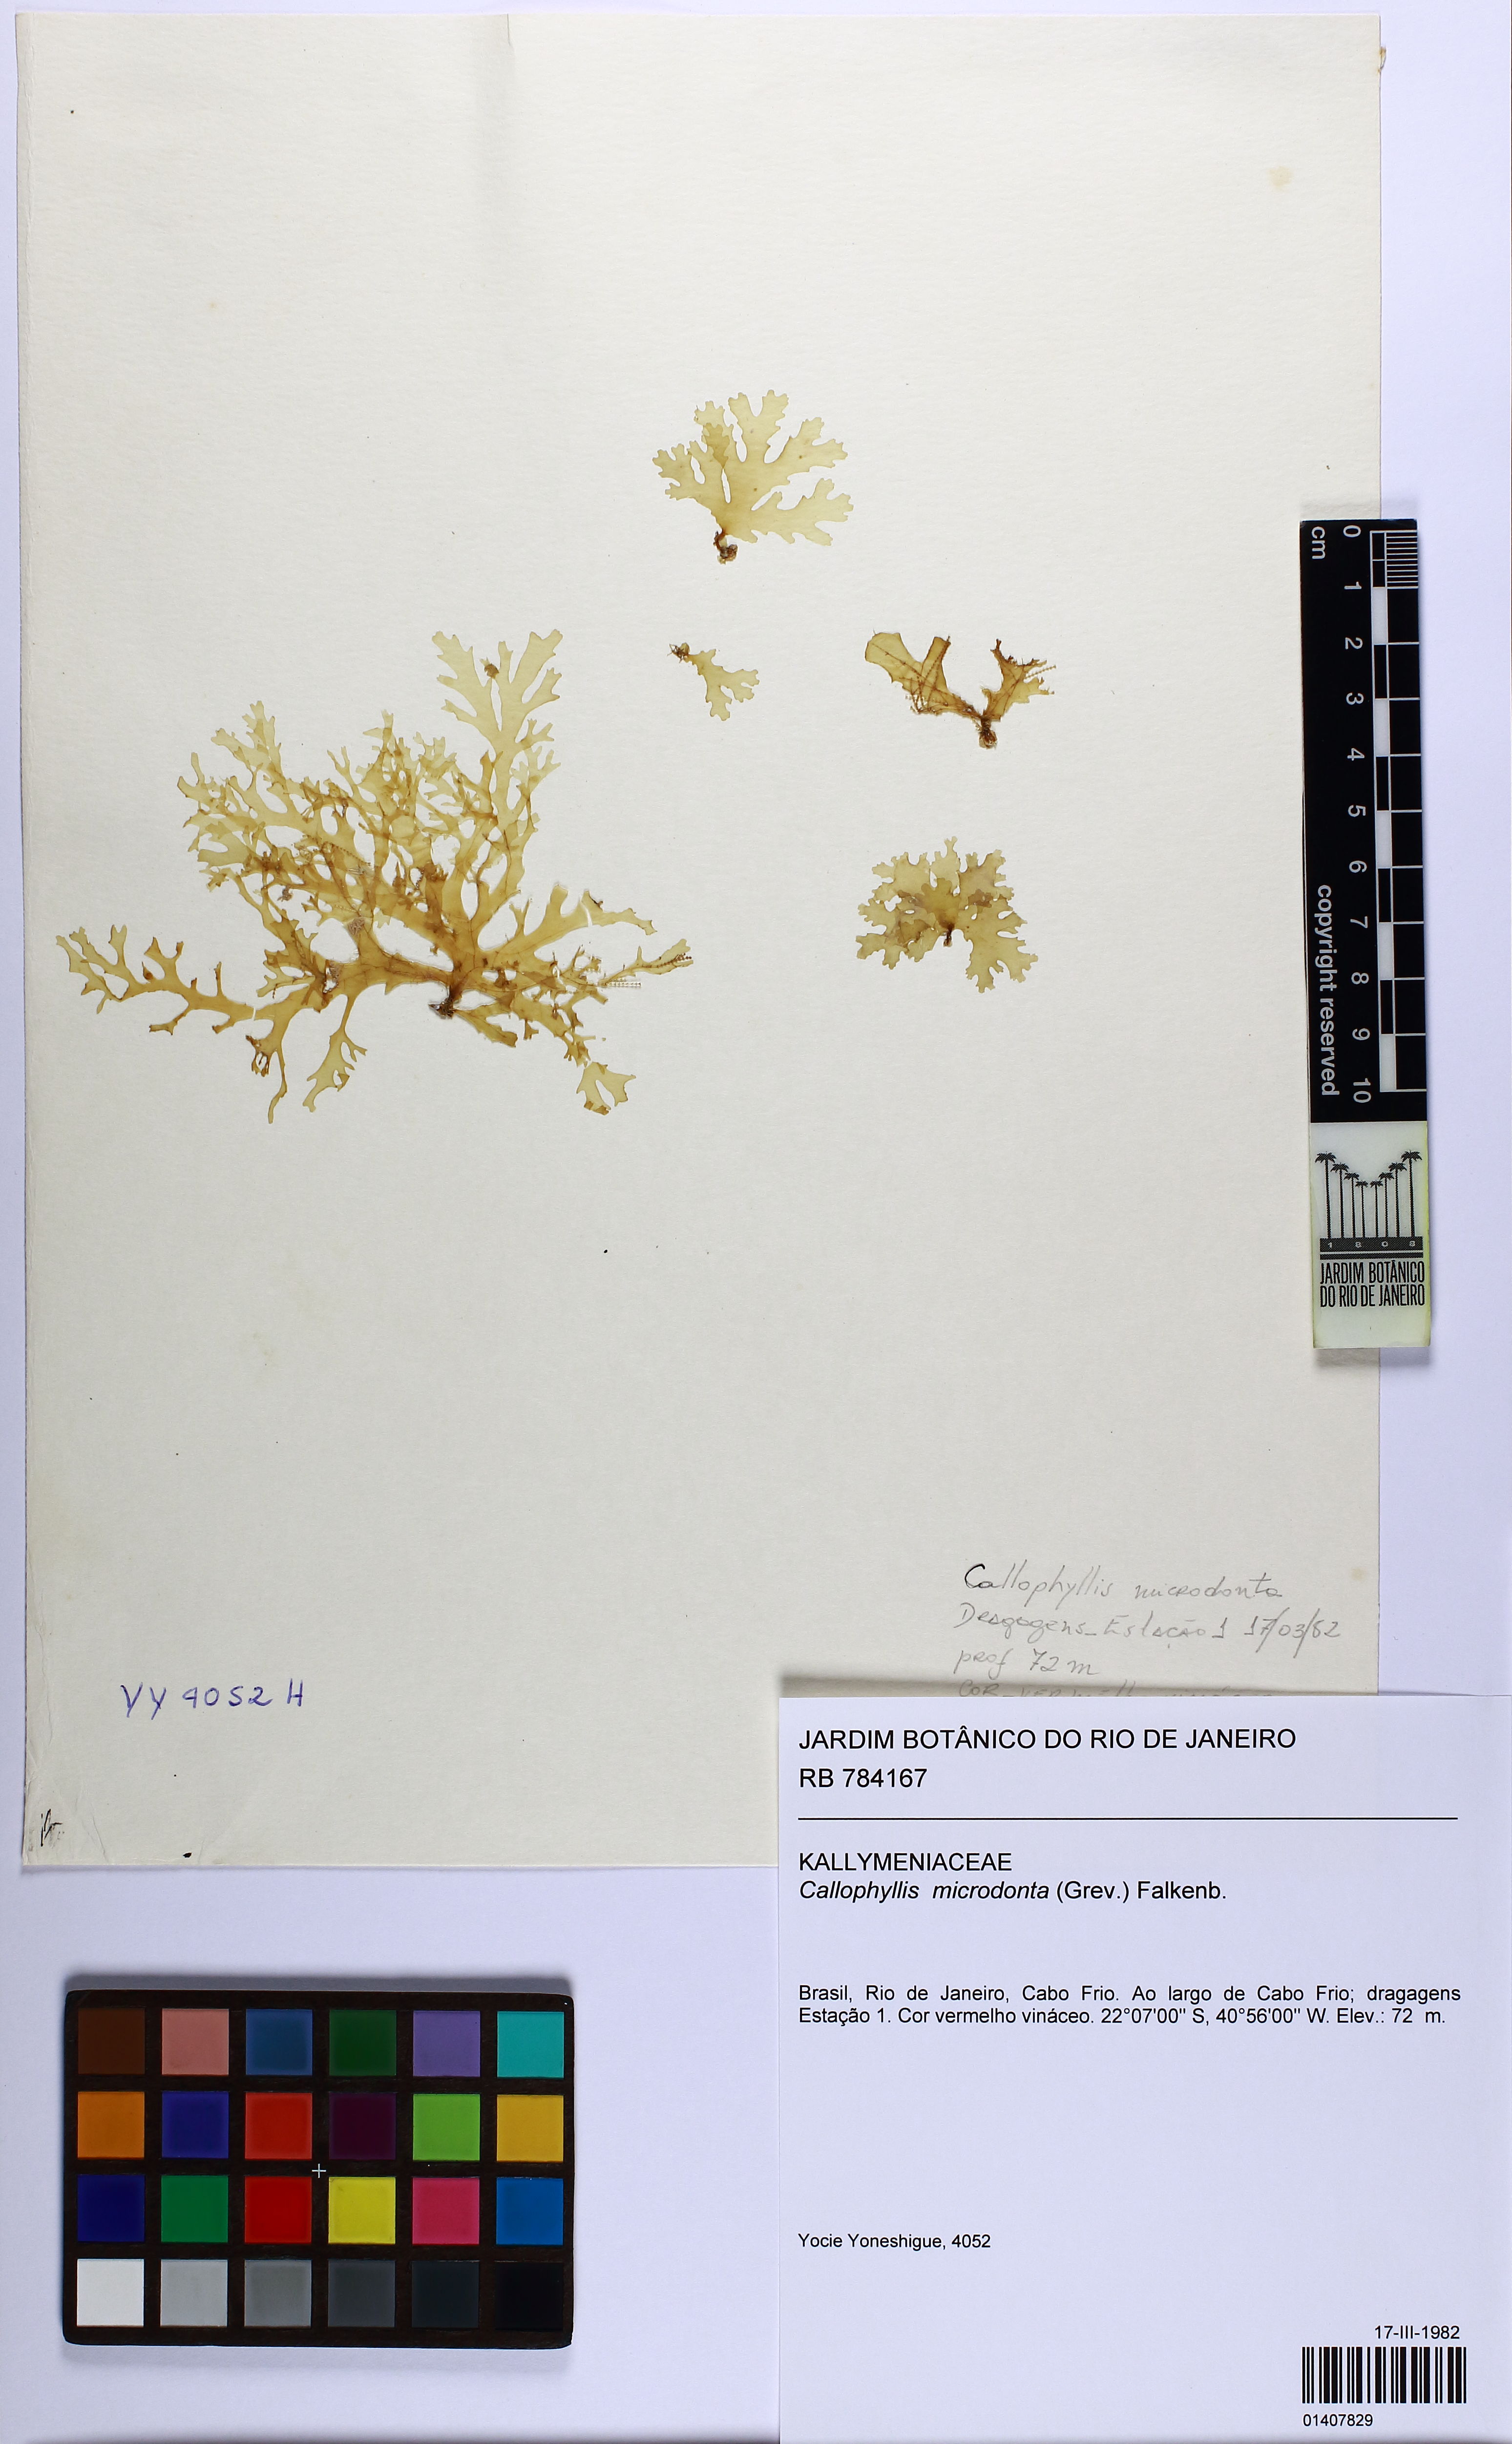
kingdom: Plantae
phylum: Rhodophyta
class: Florideophyceae
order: Gigartinales
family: Kallymeniaceae
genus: Callophyllis
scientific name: Callophyllis microdonta
